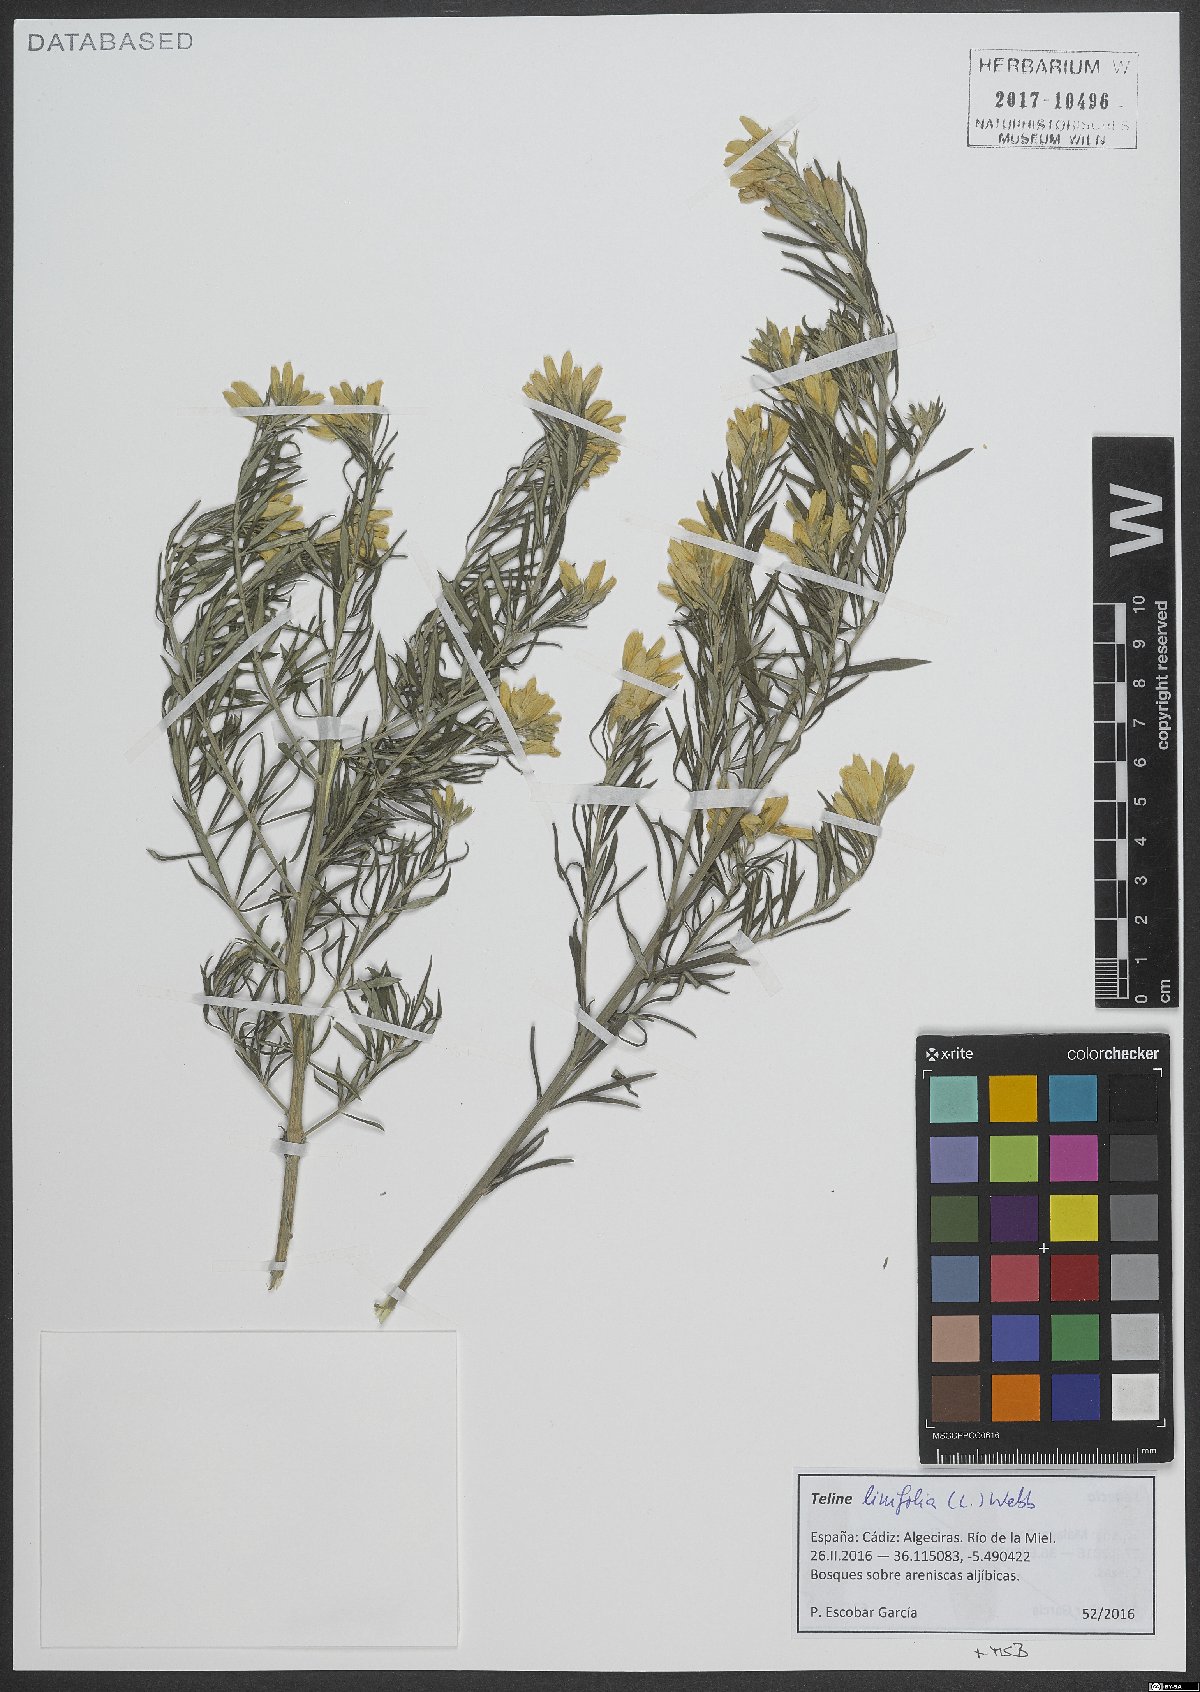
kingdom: Plantae
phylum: Tracheophyta
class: Magnoliopsida
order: Fabales
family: Fabaceae
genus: Genista
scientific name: Genista linifolia
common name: Mediterranean broom
